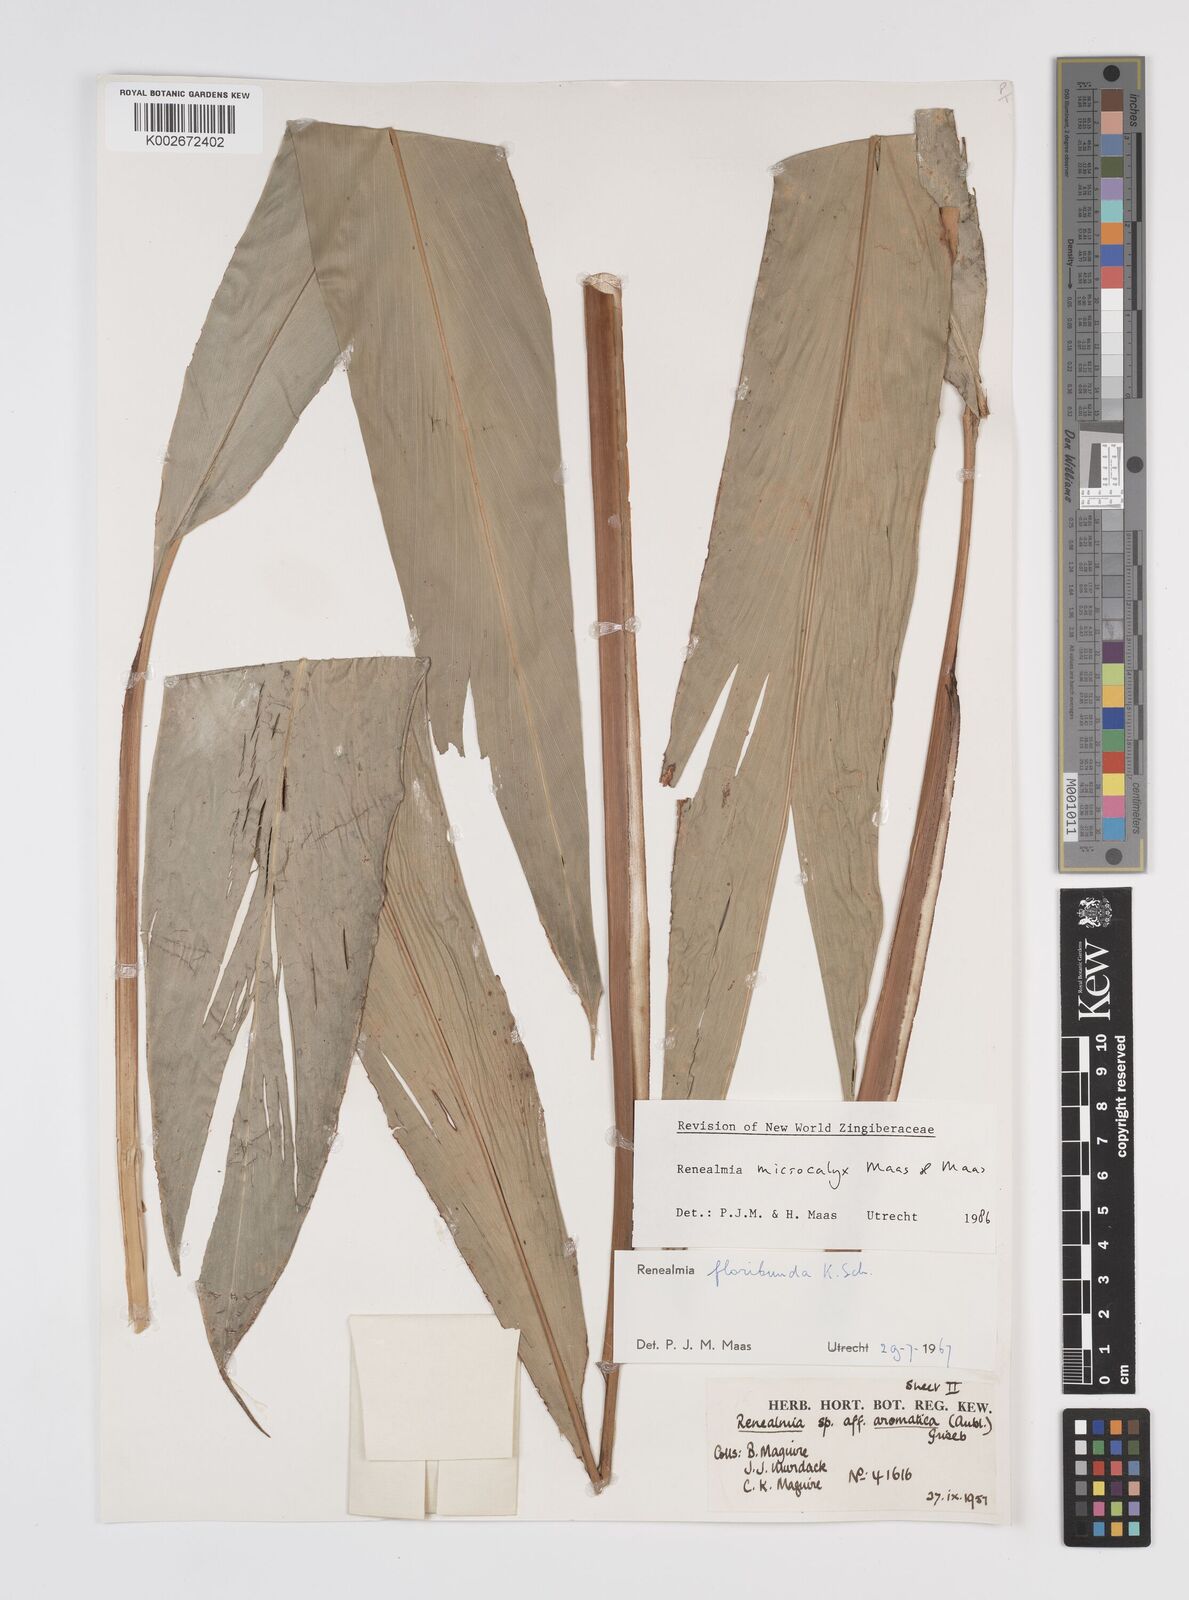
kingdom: Plantae
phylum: Tracheophyta
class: Liliopsida
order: Zingiberales
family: Zingiberaceae
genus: Renealmia
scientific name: Renealmia microcalyx
